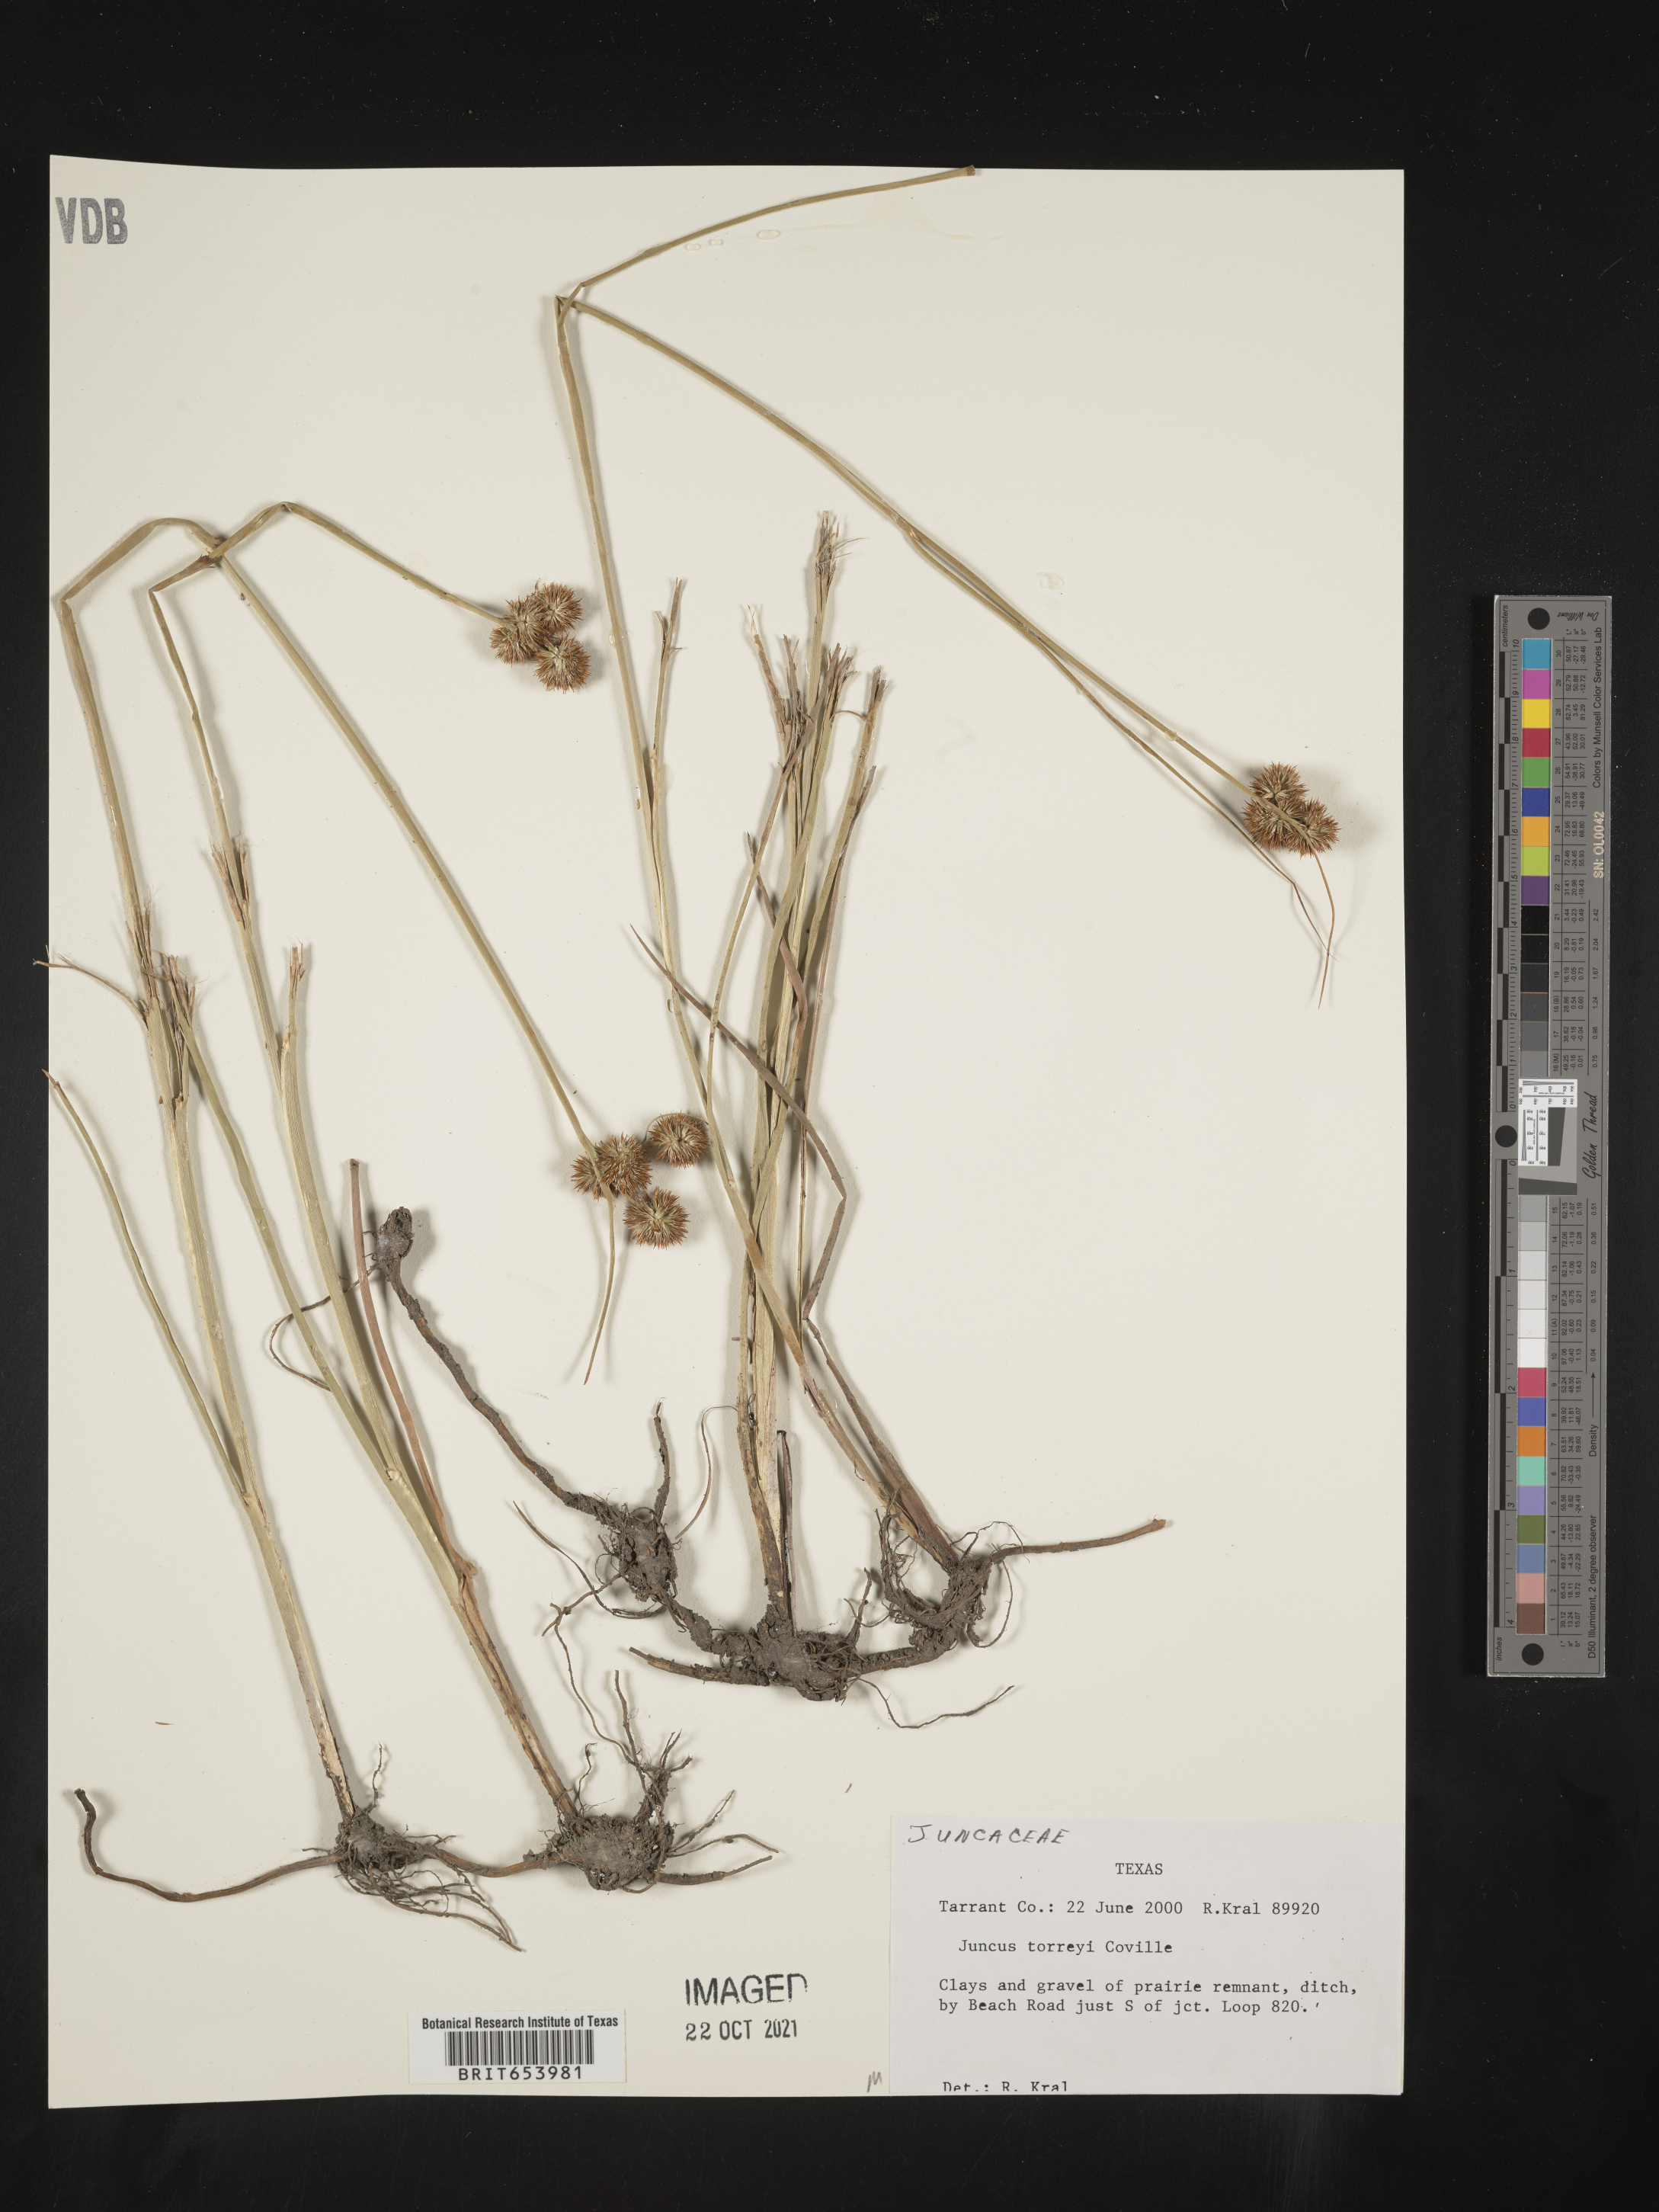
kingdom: Plantae
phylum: Tracheophyta
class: Liliopsida
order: Poales
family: Juncaceae
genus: Juncus
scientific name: Juncus torreyi
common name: Torrey's rush
